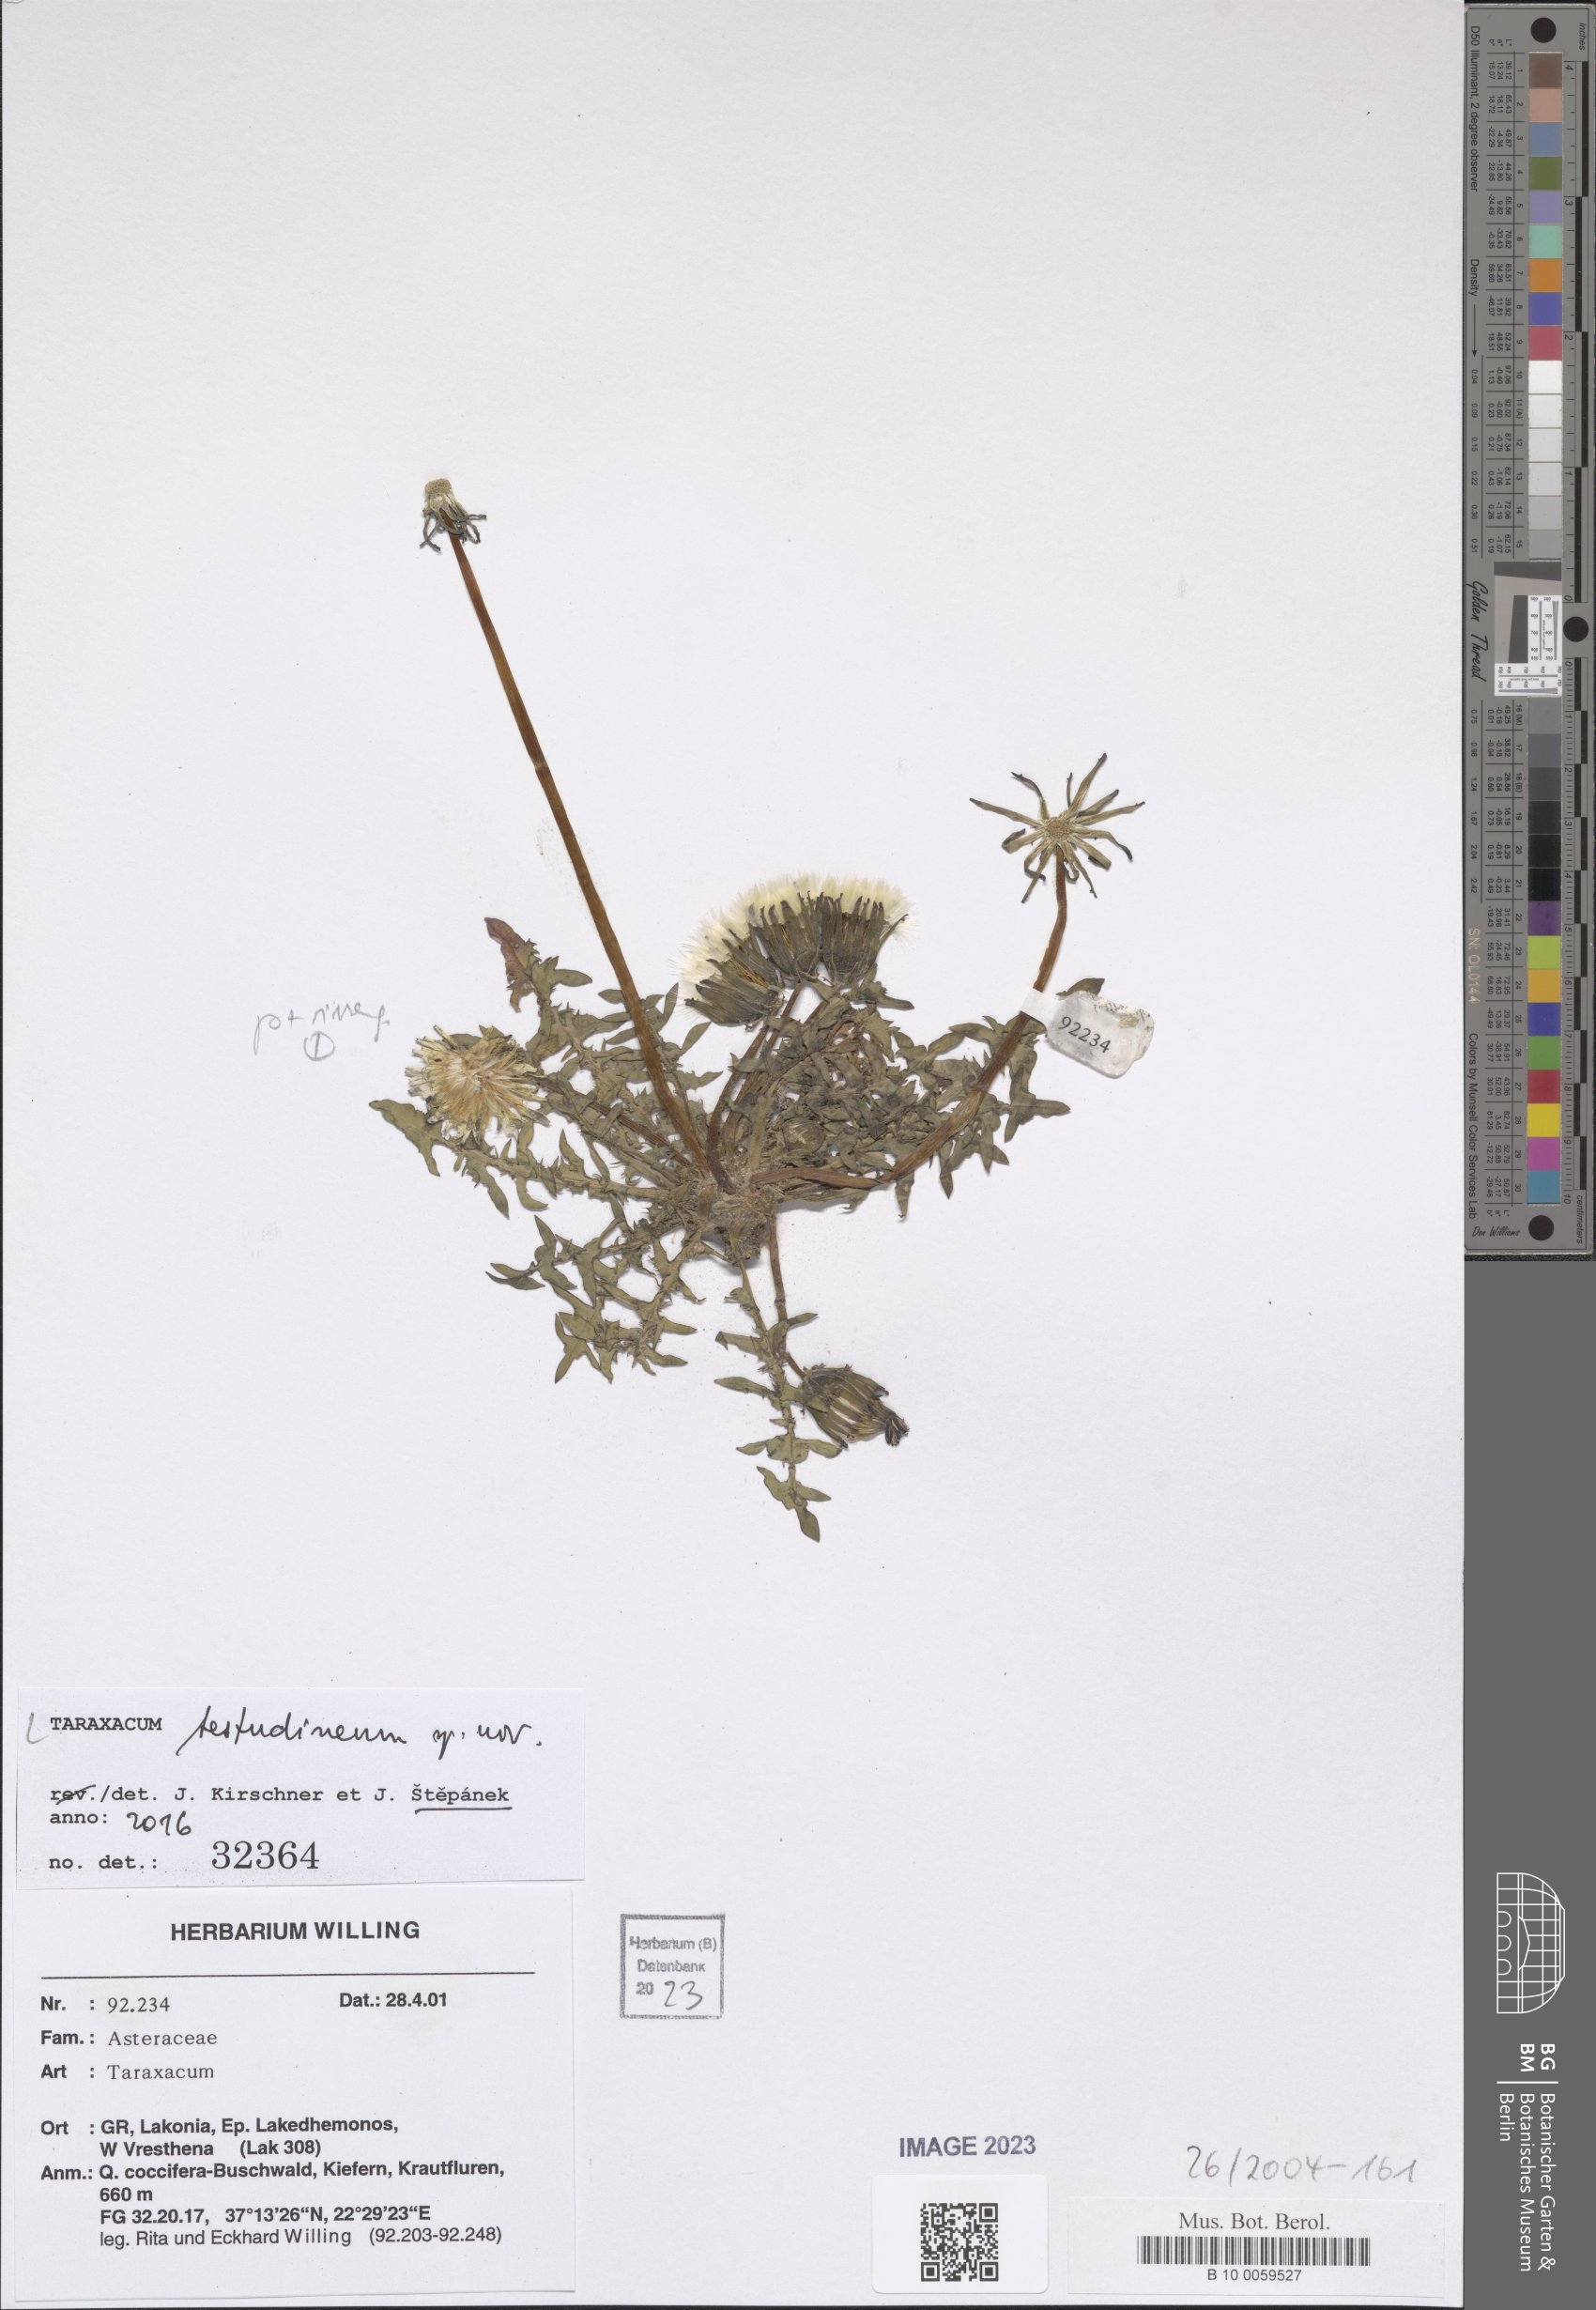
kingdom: Plantae
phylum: Tracheophyta
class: Magnoliopsida
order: Asterales
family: Asteraceae
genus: Taraxacum
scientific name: Taraxacum
